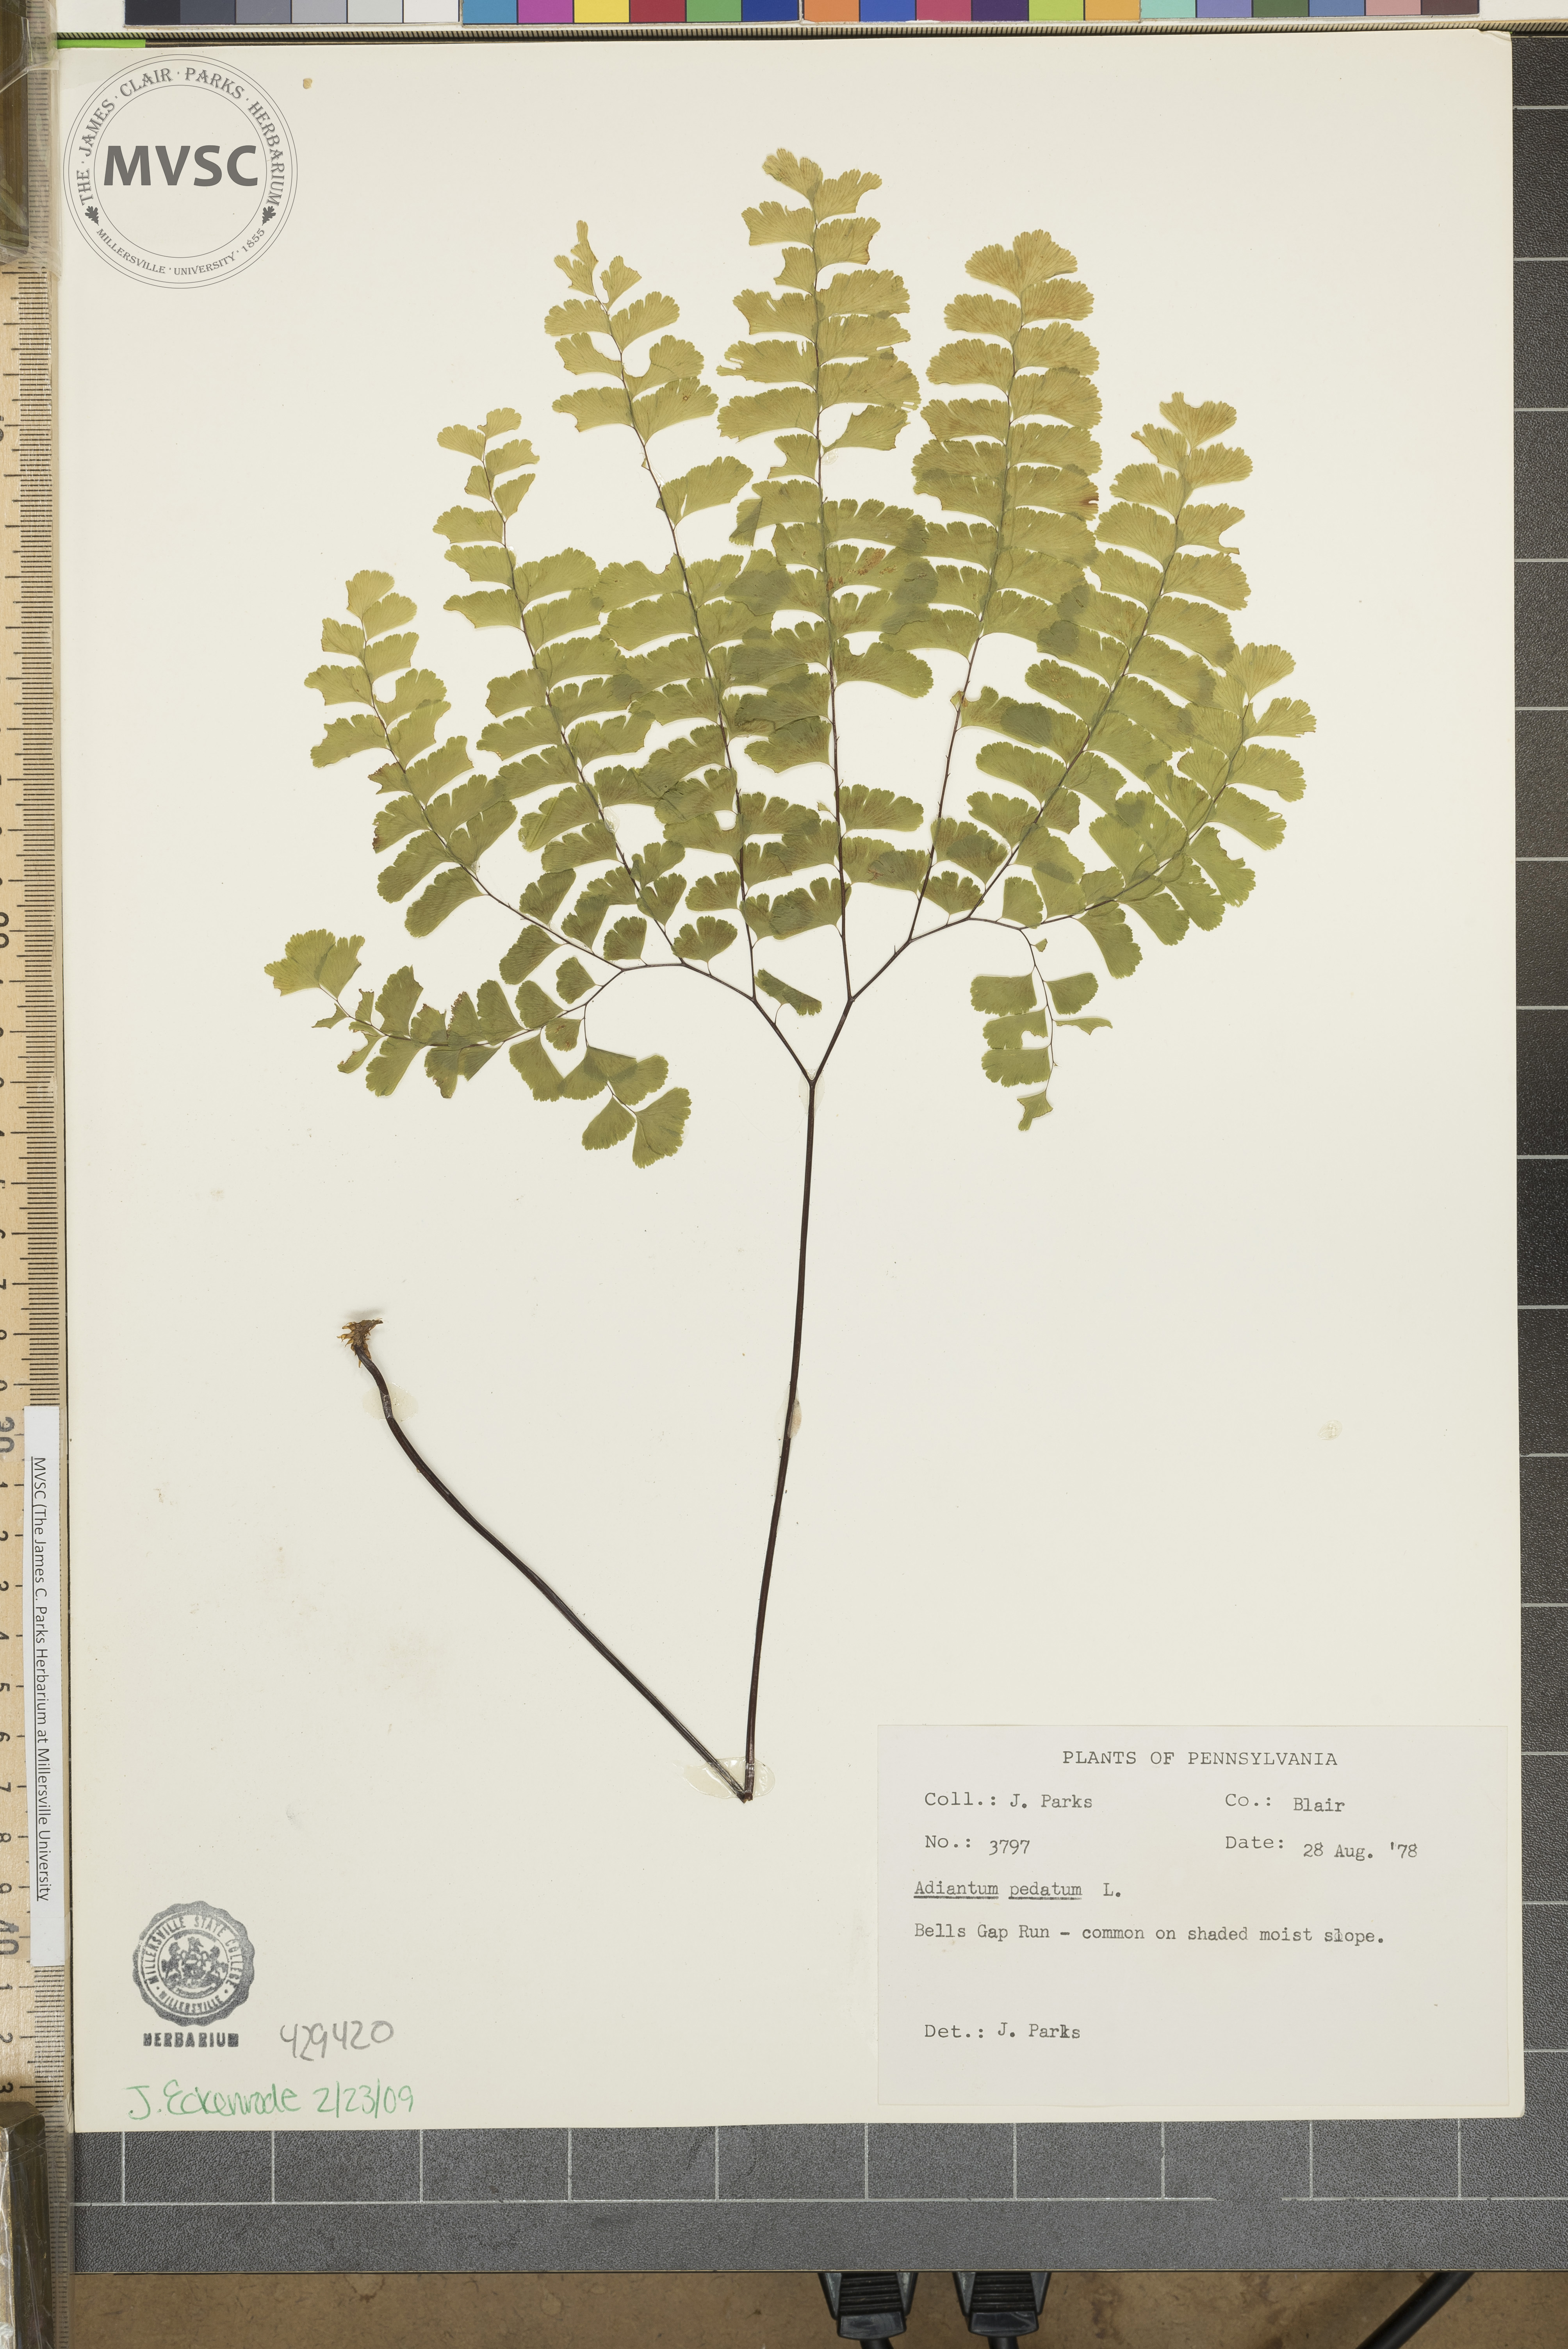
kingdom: Plantae
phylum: Tracheophyta
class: Polypodiopsida
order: Polypodiales
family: Pteridaceae
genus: Adiantum
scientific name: Adiantum pedatum
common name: Five-finger fern
